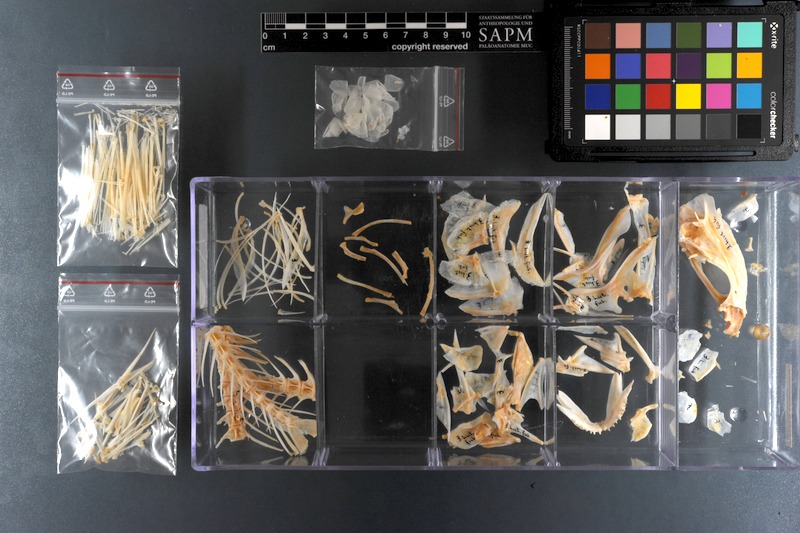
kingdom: Animalia
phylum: Chordata
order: Perciformes
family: Lutjanidae
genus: Lutjanus
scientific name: Lutjanus fulviflamma
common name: Blackspot snapper
